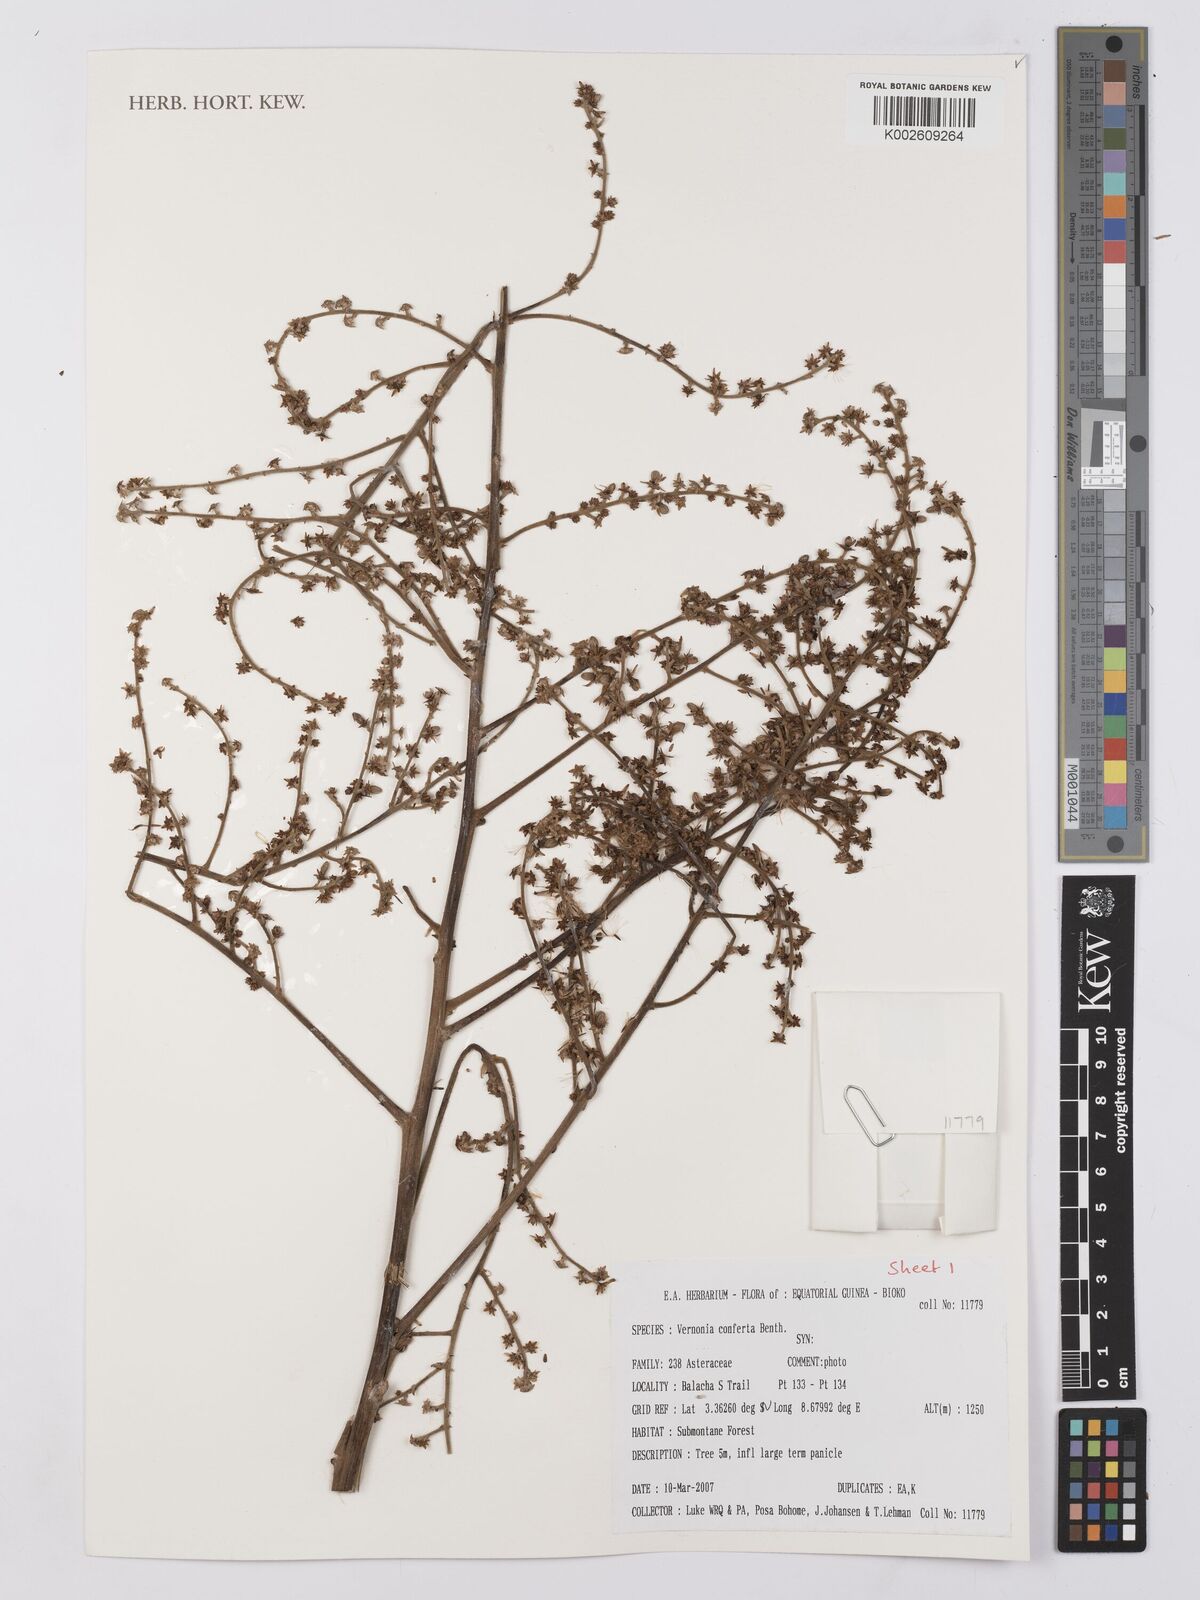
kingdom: Plantae
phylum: Tracheophyta
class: Magnoliopsida
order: Asterales
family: Asteraceae
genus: Monosis
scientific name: Monosis conferta
